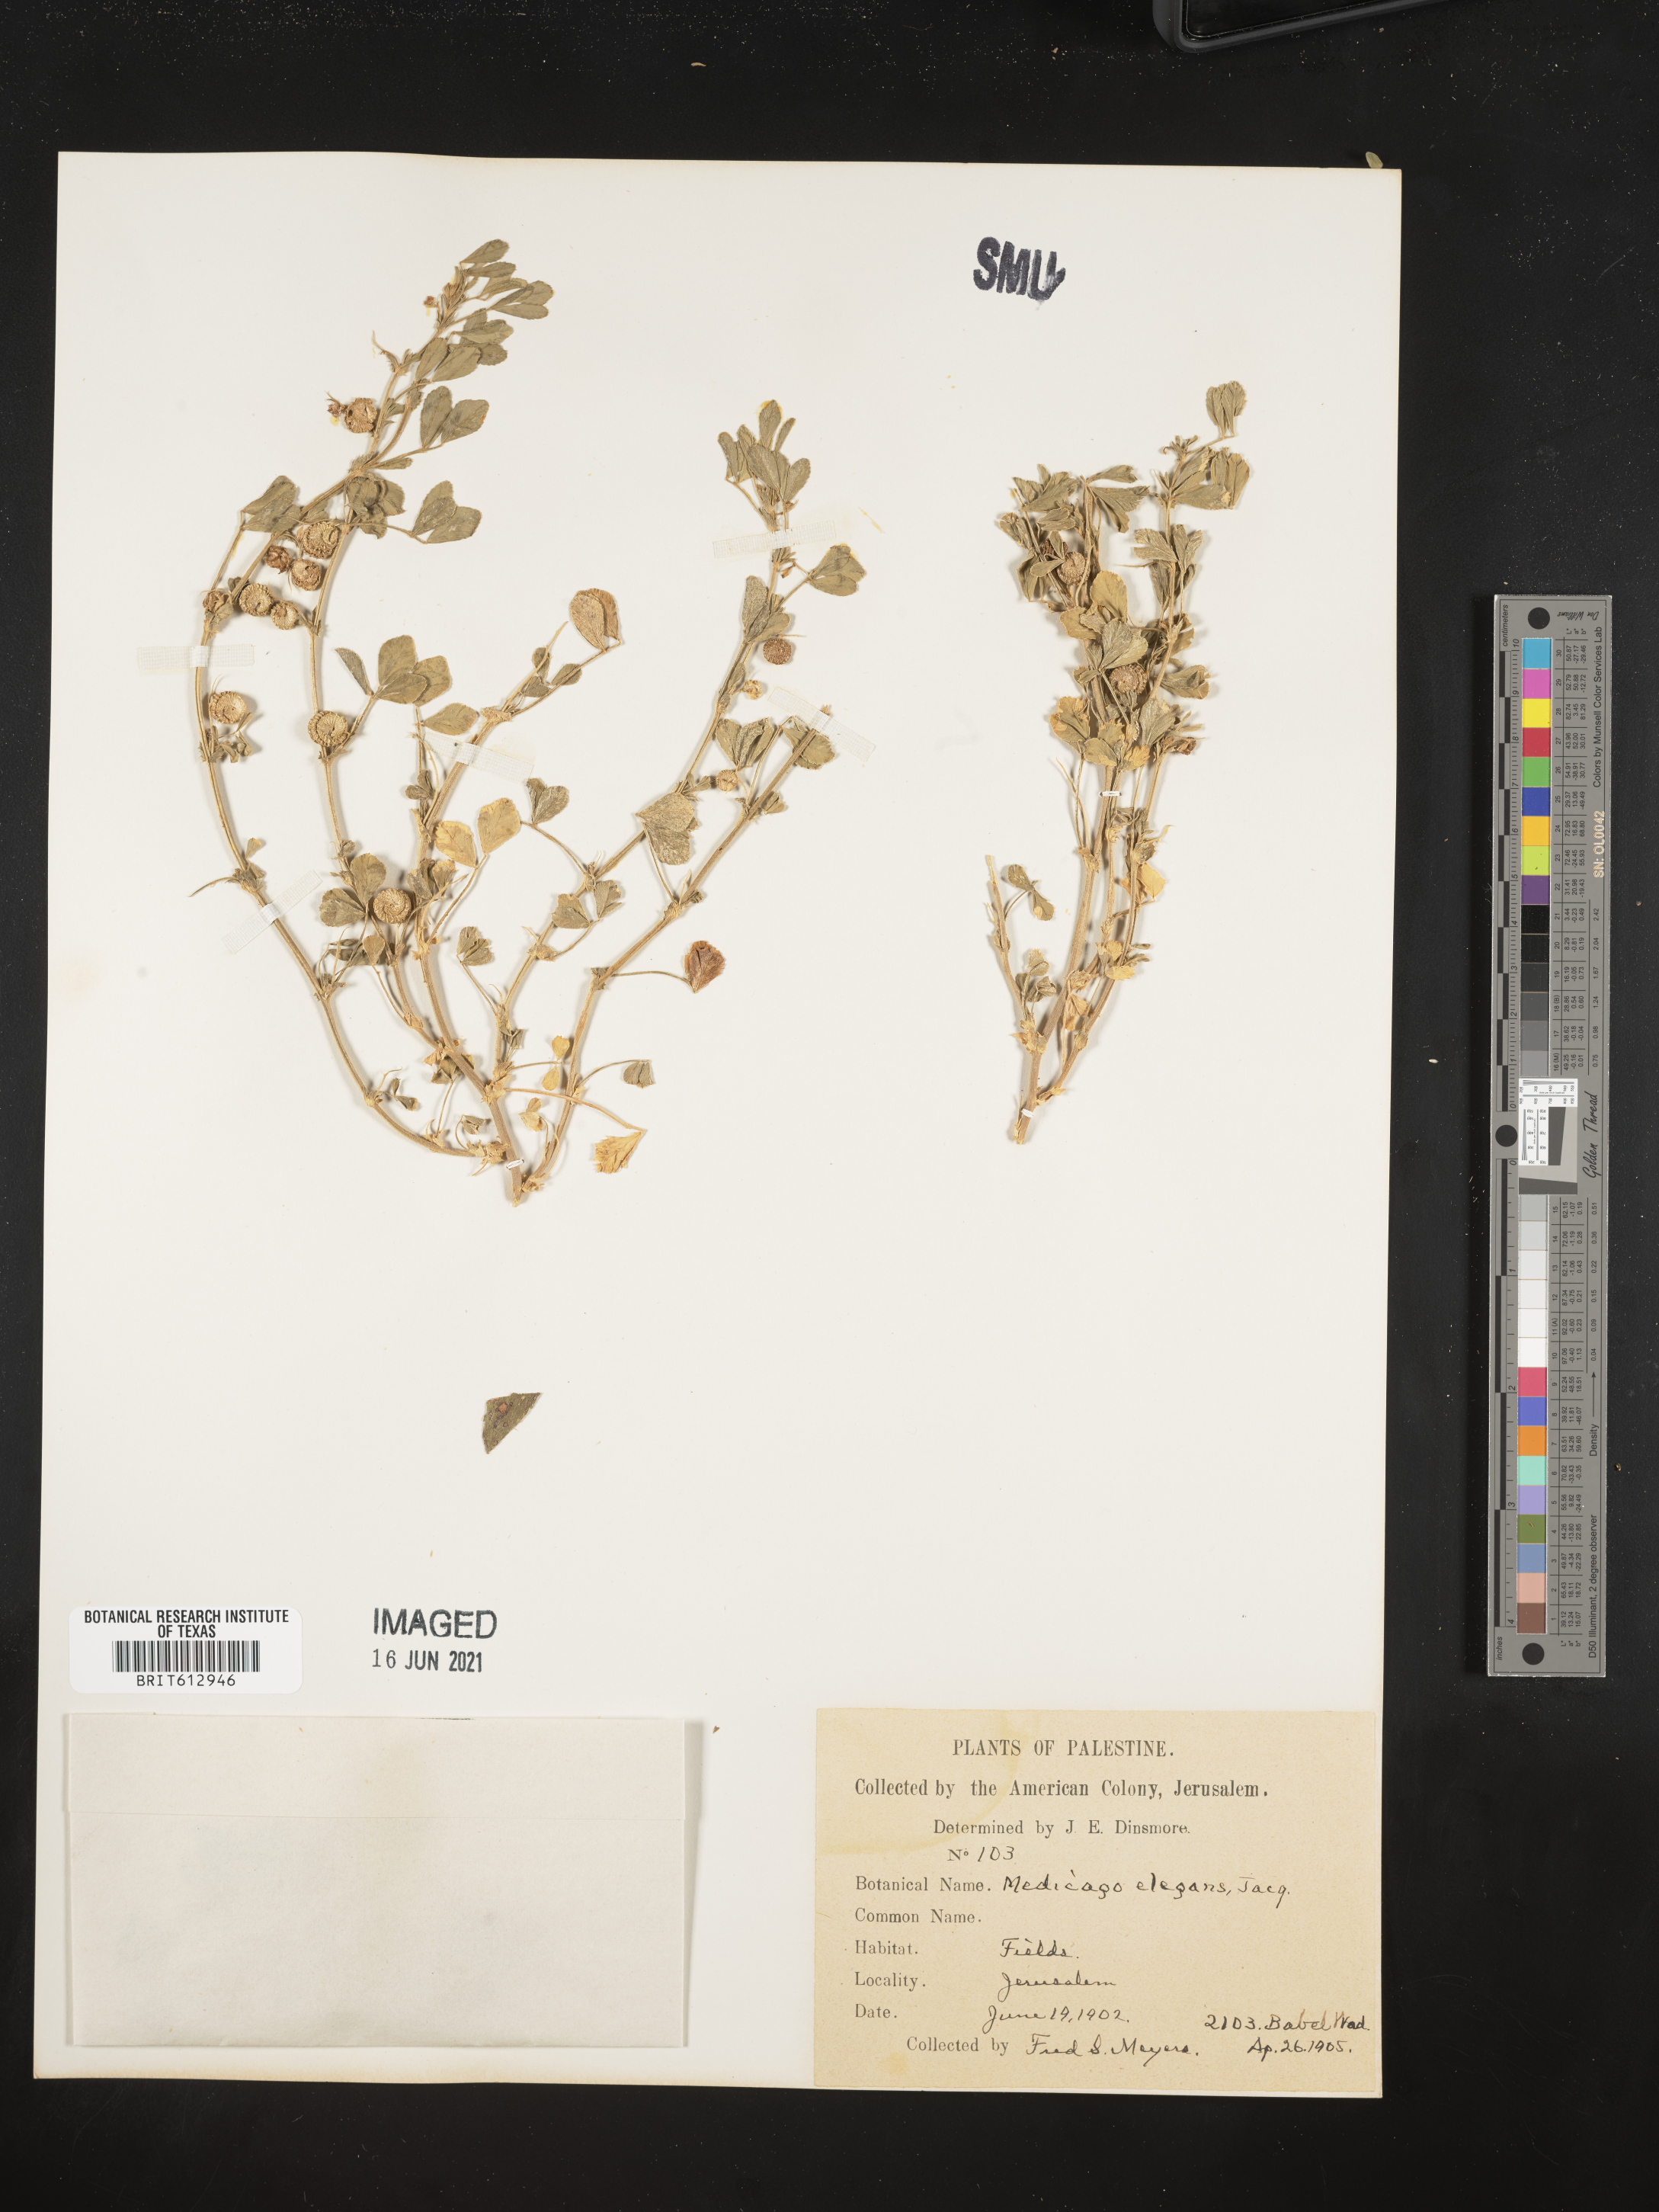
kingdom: Plantae
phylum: Tracheophyta
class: Magnoliopsida
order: Fabales
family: Fabaceae
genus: Medicago
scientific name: Medicago rugosa
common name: Gama medic
